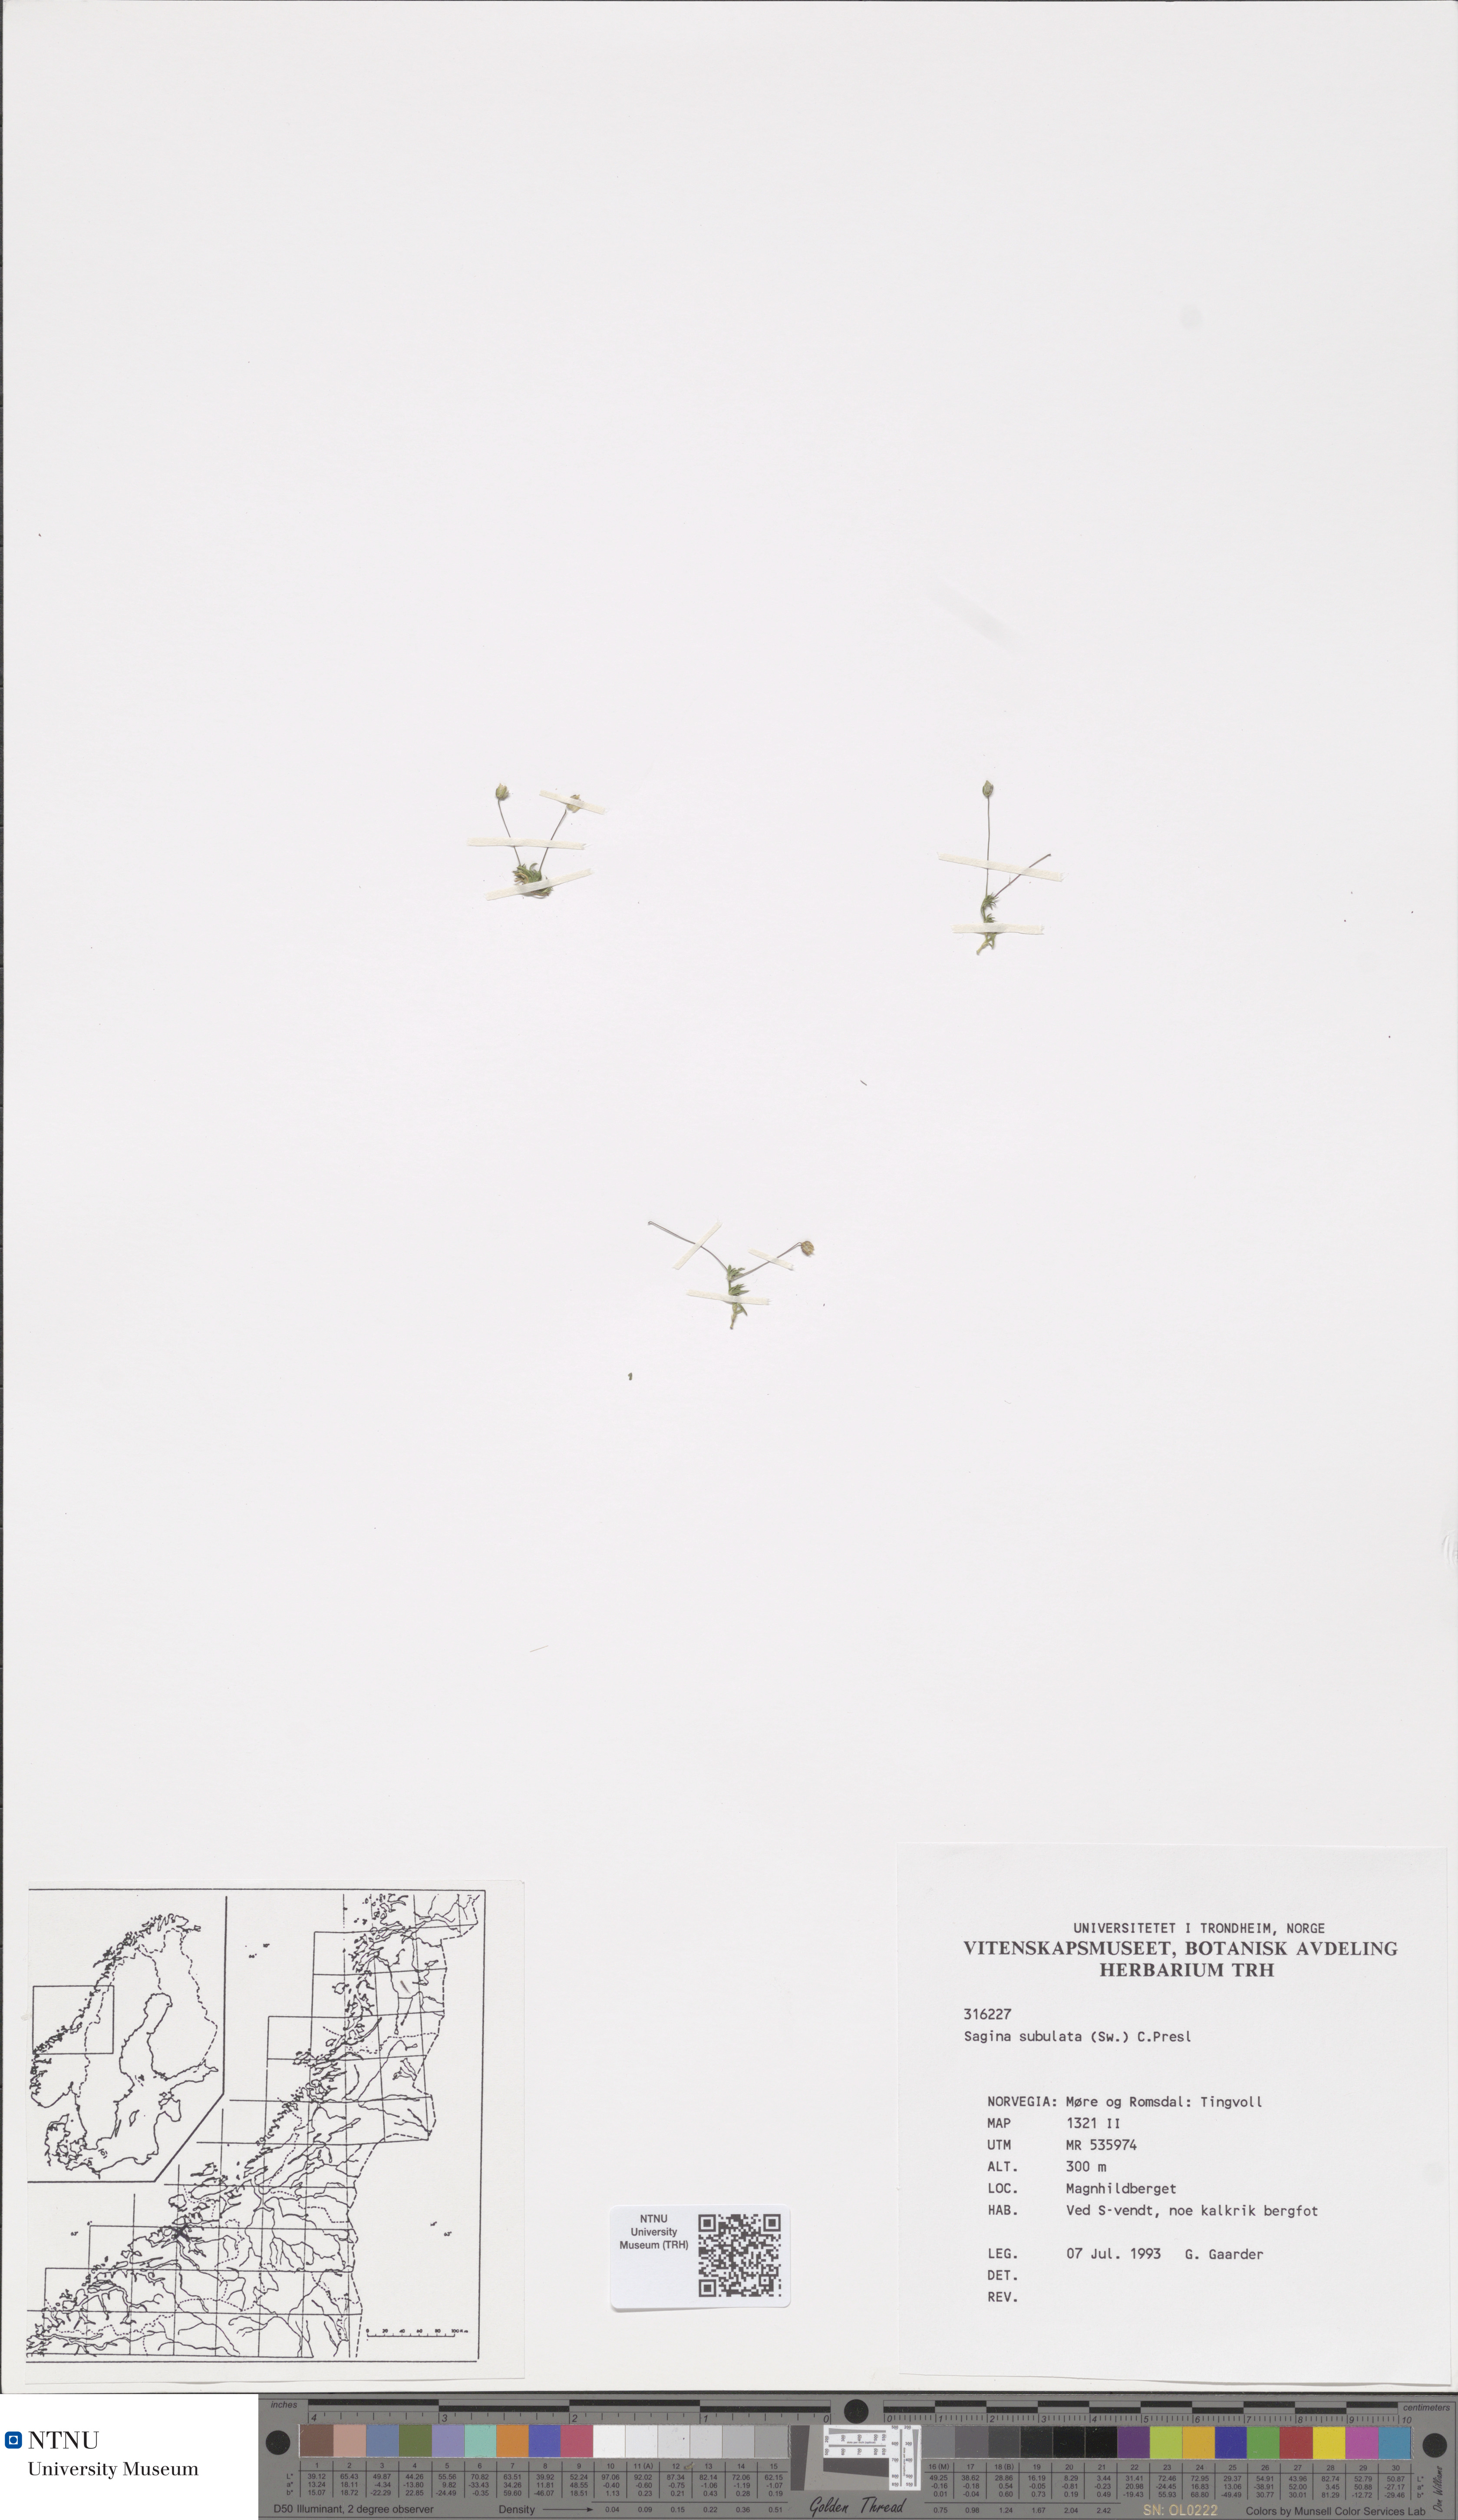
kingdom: Plantae
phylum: Tracheophyta
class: Magnoliopsida
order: Caryophyllales
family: Caryophyllaceae
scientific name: Caryophyllaceae
